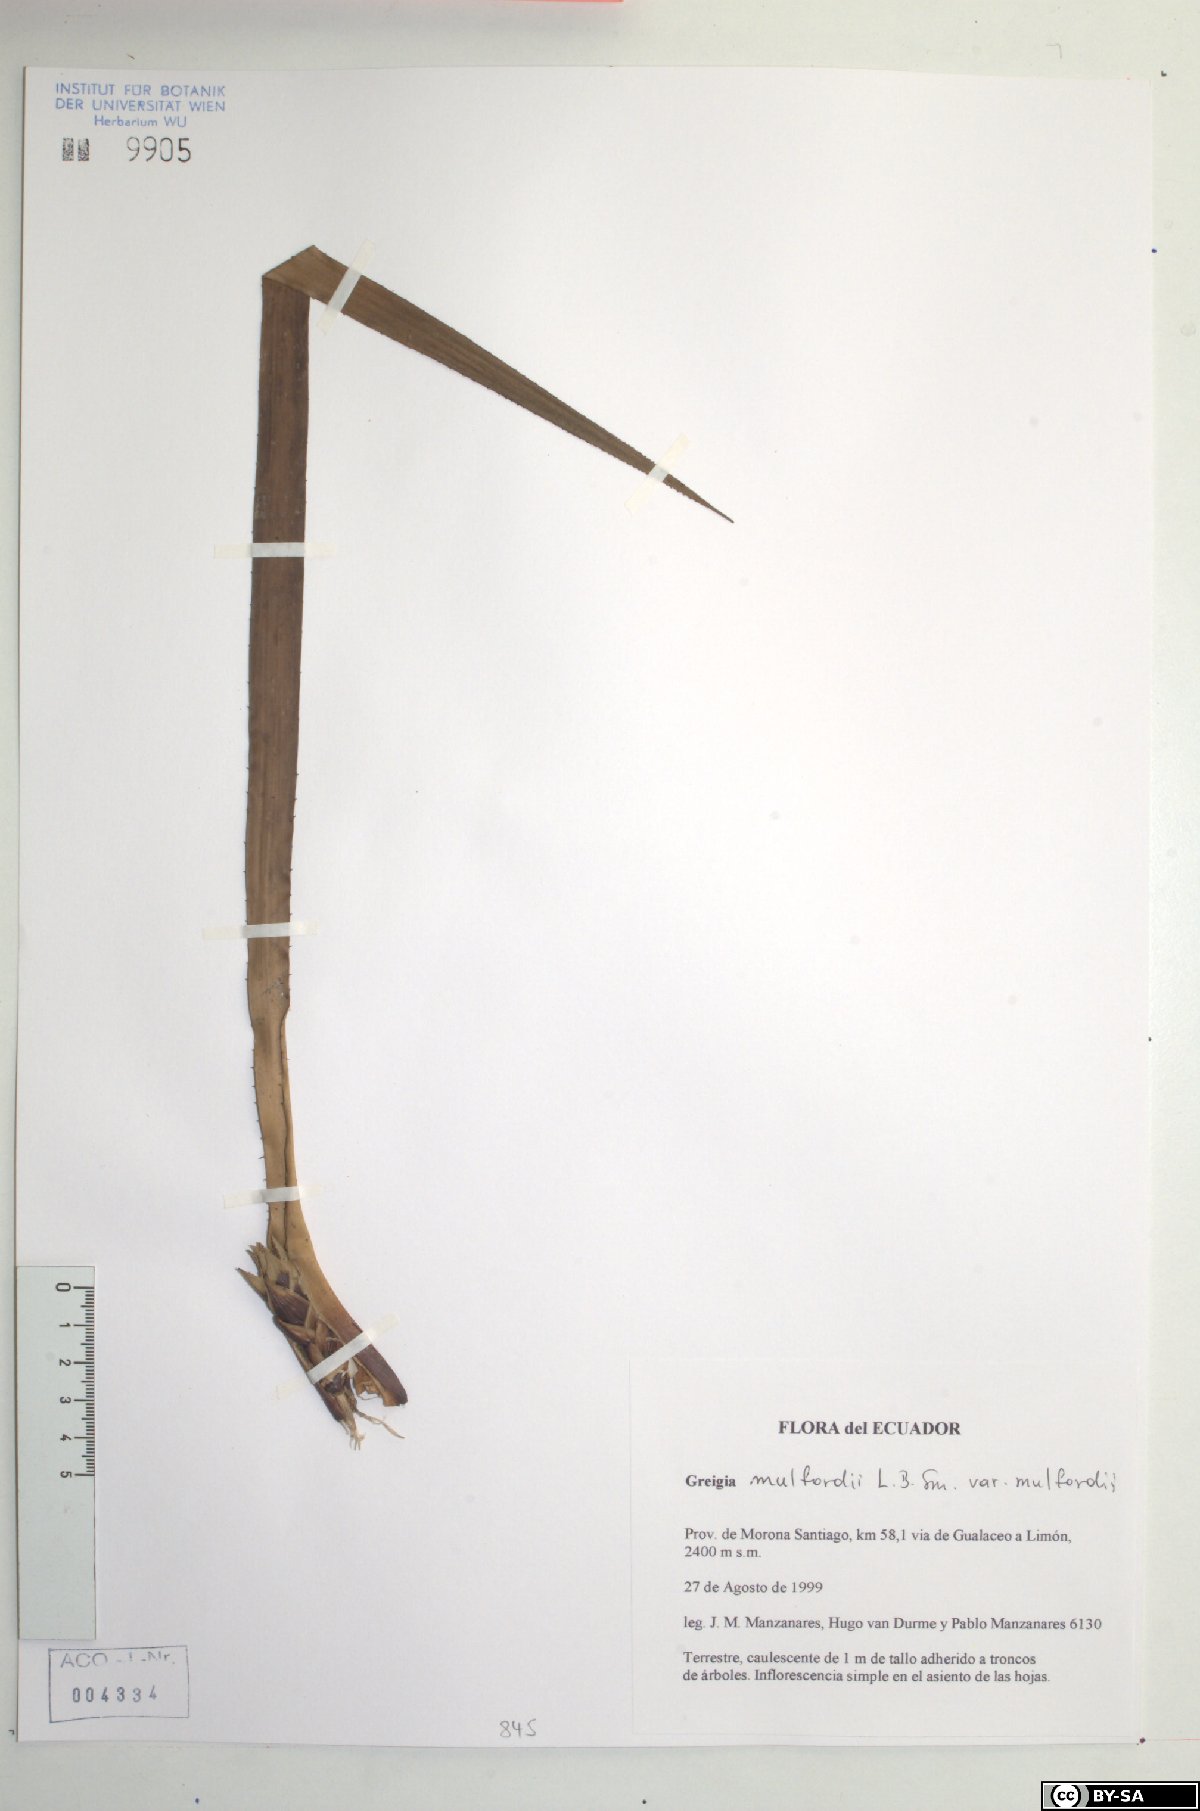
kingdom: Plantae
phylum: Tracheophyta
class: Liliopsida
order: Poales
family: Bromeliaceae
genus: Greigia
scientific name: Greigia mulfordii
